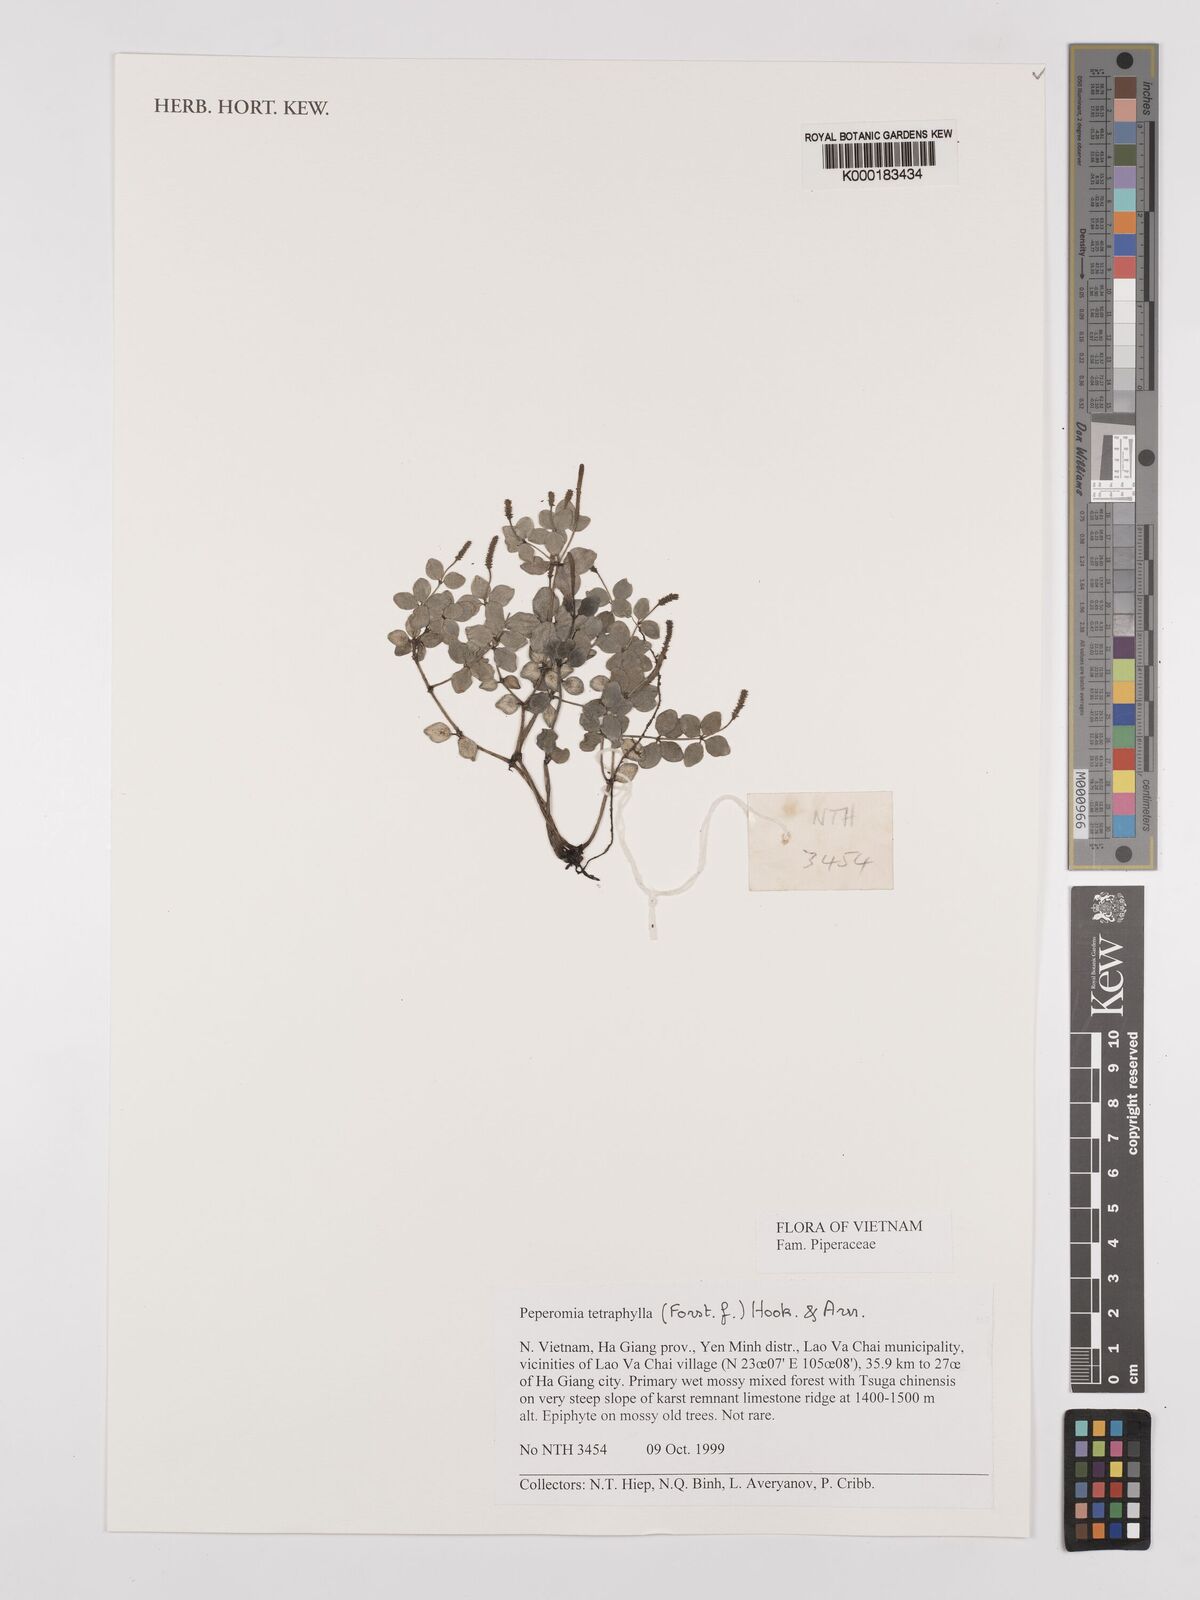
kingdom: Plantae
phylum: Tracheophyta
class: Magnoliopsida
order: Piperales
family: Piperaceae
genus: Peperomia
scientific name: Peperomia tetraphylla
